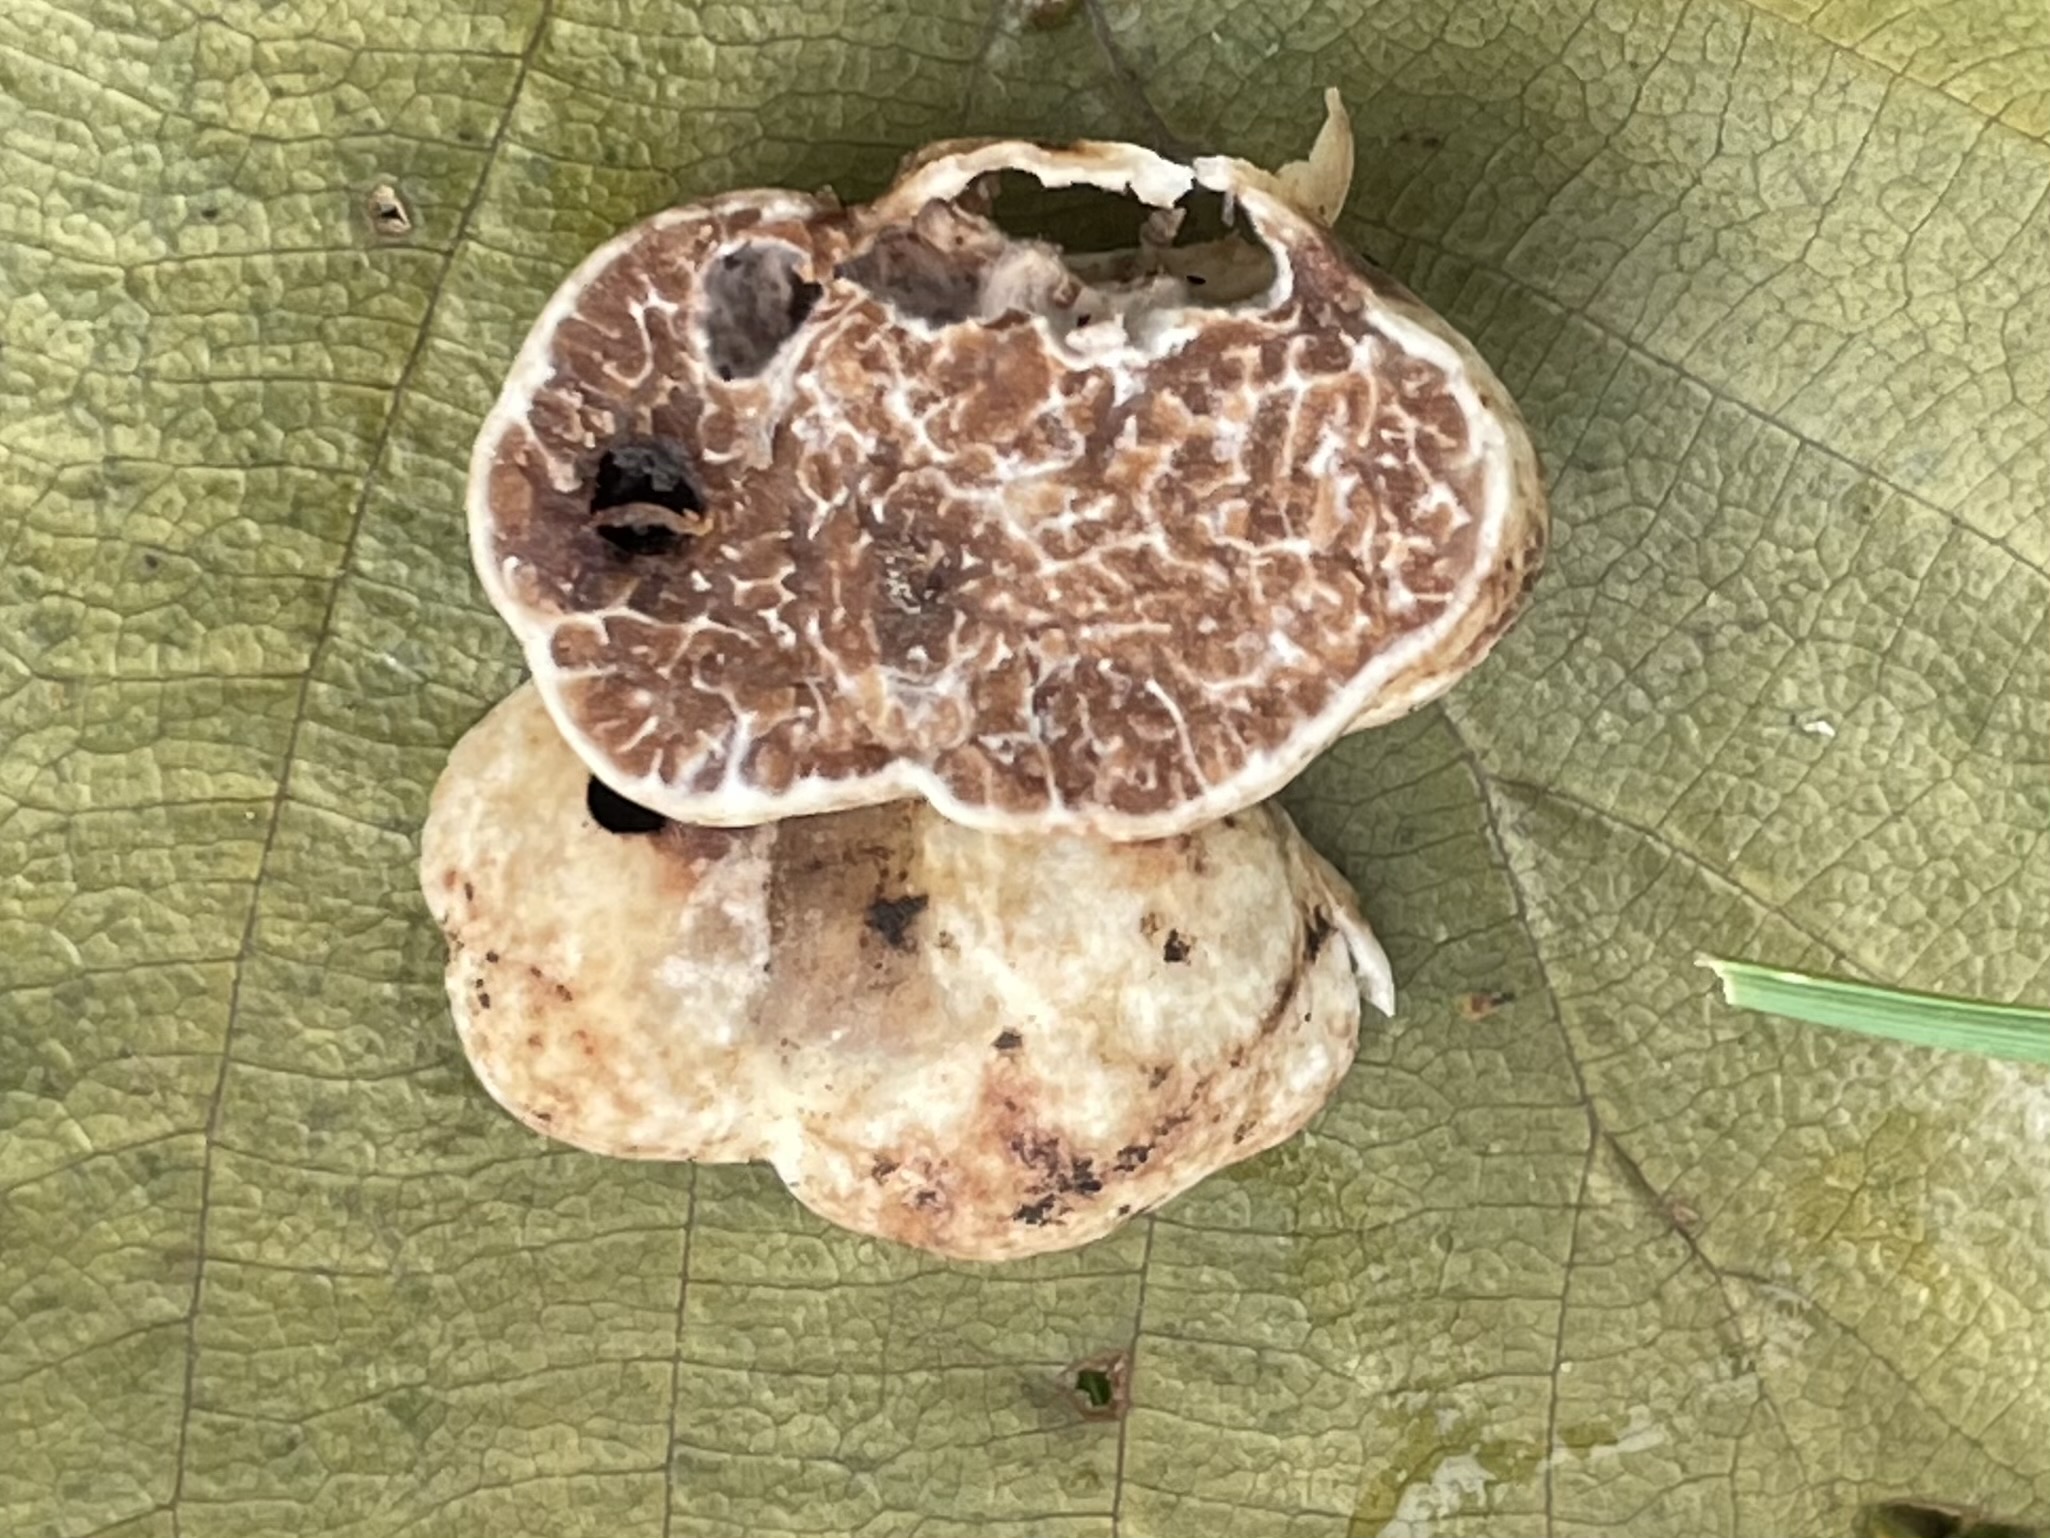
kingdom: Fungi
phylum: Ascomycota
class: Pezizomycetes
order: Pezizales
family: Tuberaceae
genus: Tuber
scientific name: Tuber
